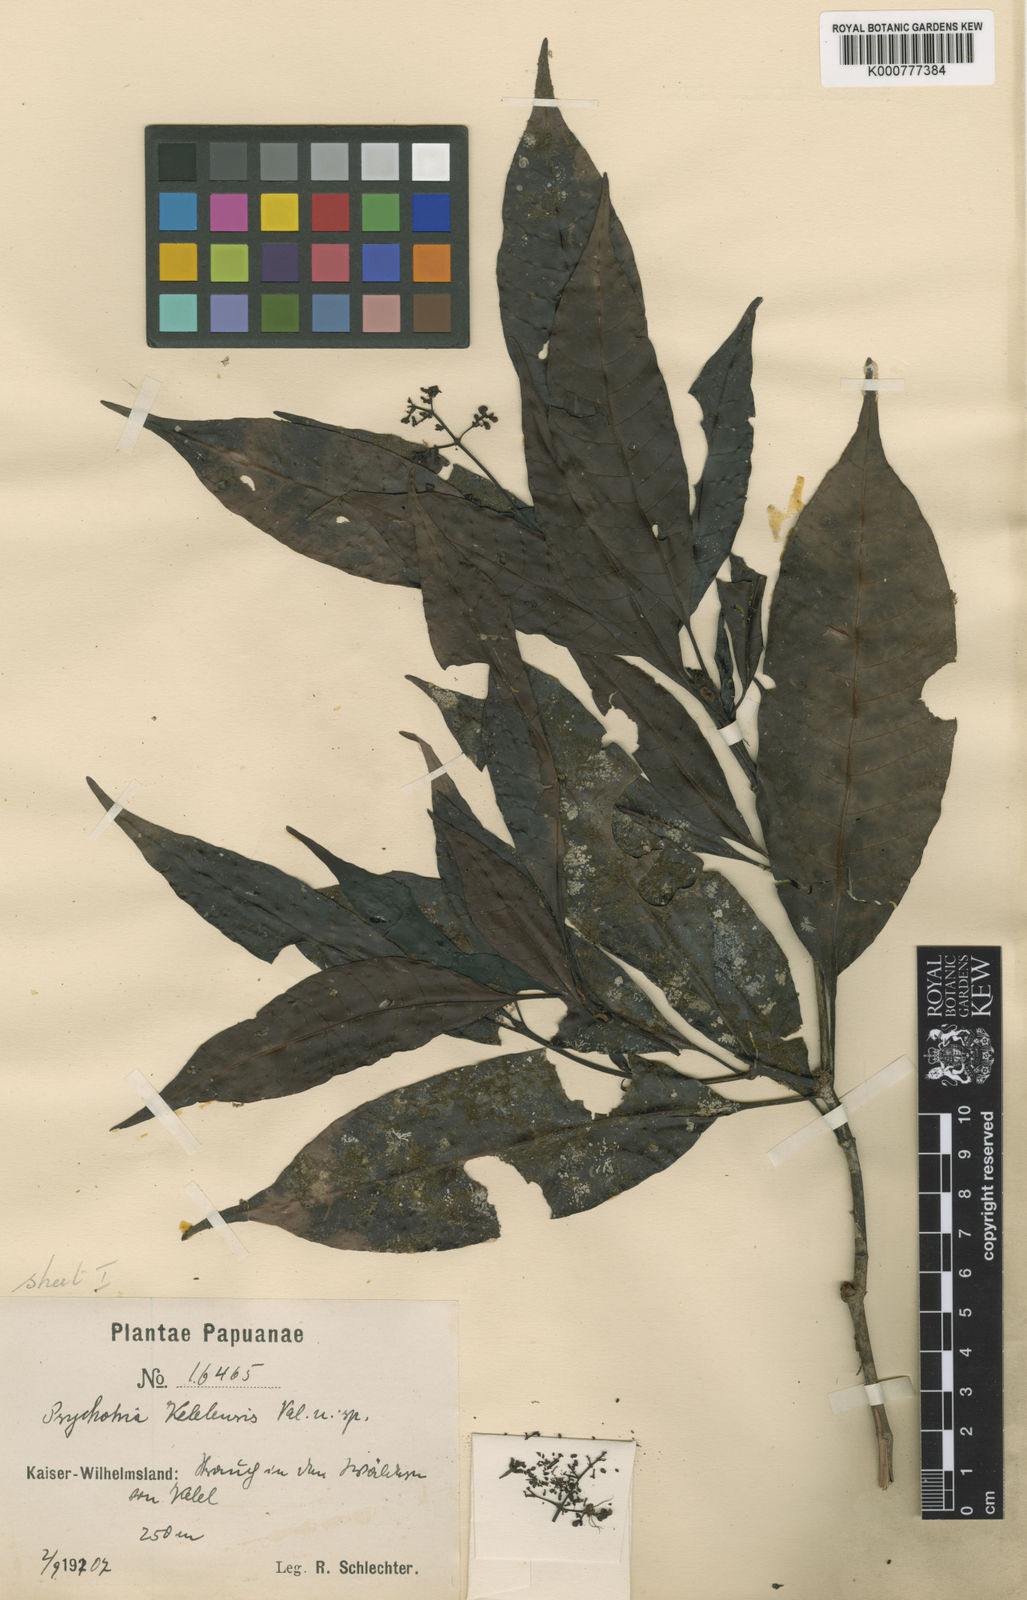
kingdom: Plantae
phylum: Tracheophyta
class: Magnoliopsida
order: Gentianales
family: Rubiaceae
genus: Psychotria
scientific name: Psychotria kelelensis
